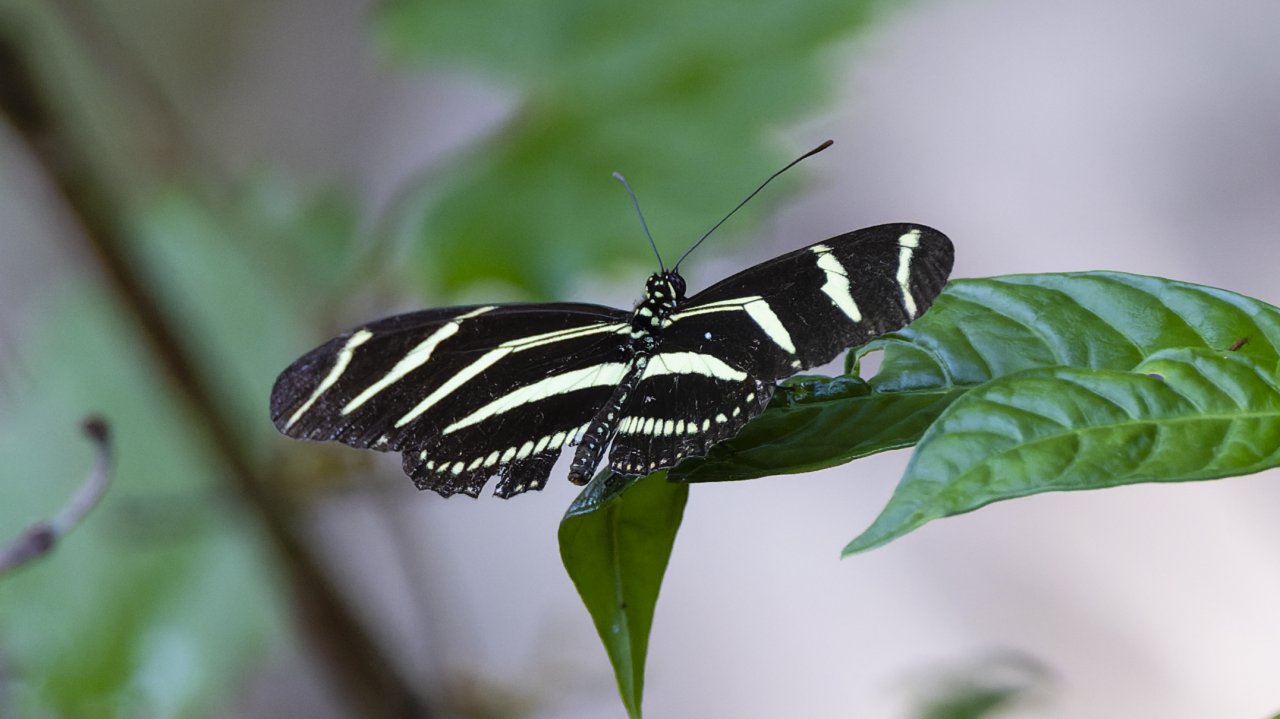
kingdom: Animalia
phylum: Arthropoda
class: Insecta
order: Lepidoptera
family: Nymphalidae
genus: Heliconius
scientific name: Heliconius charithonia
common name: Zebra Longwing
